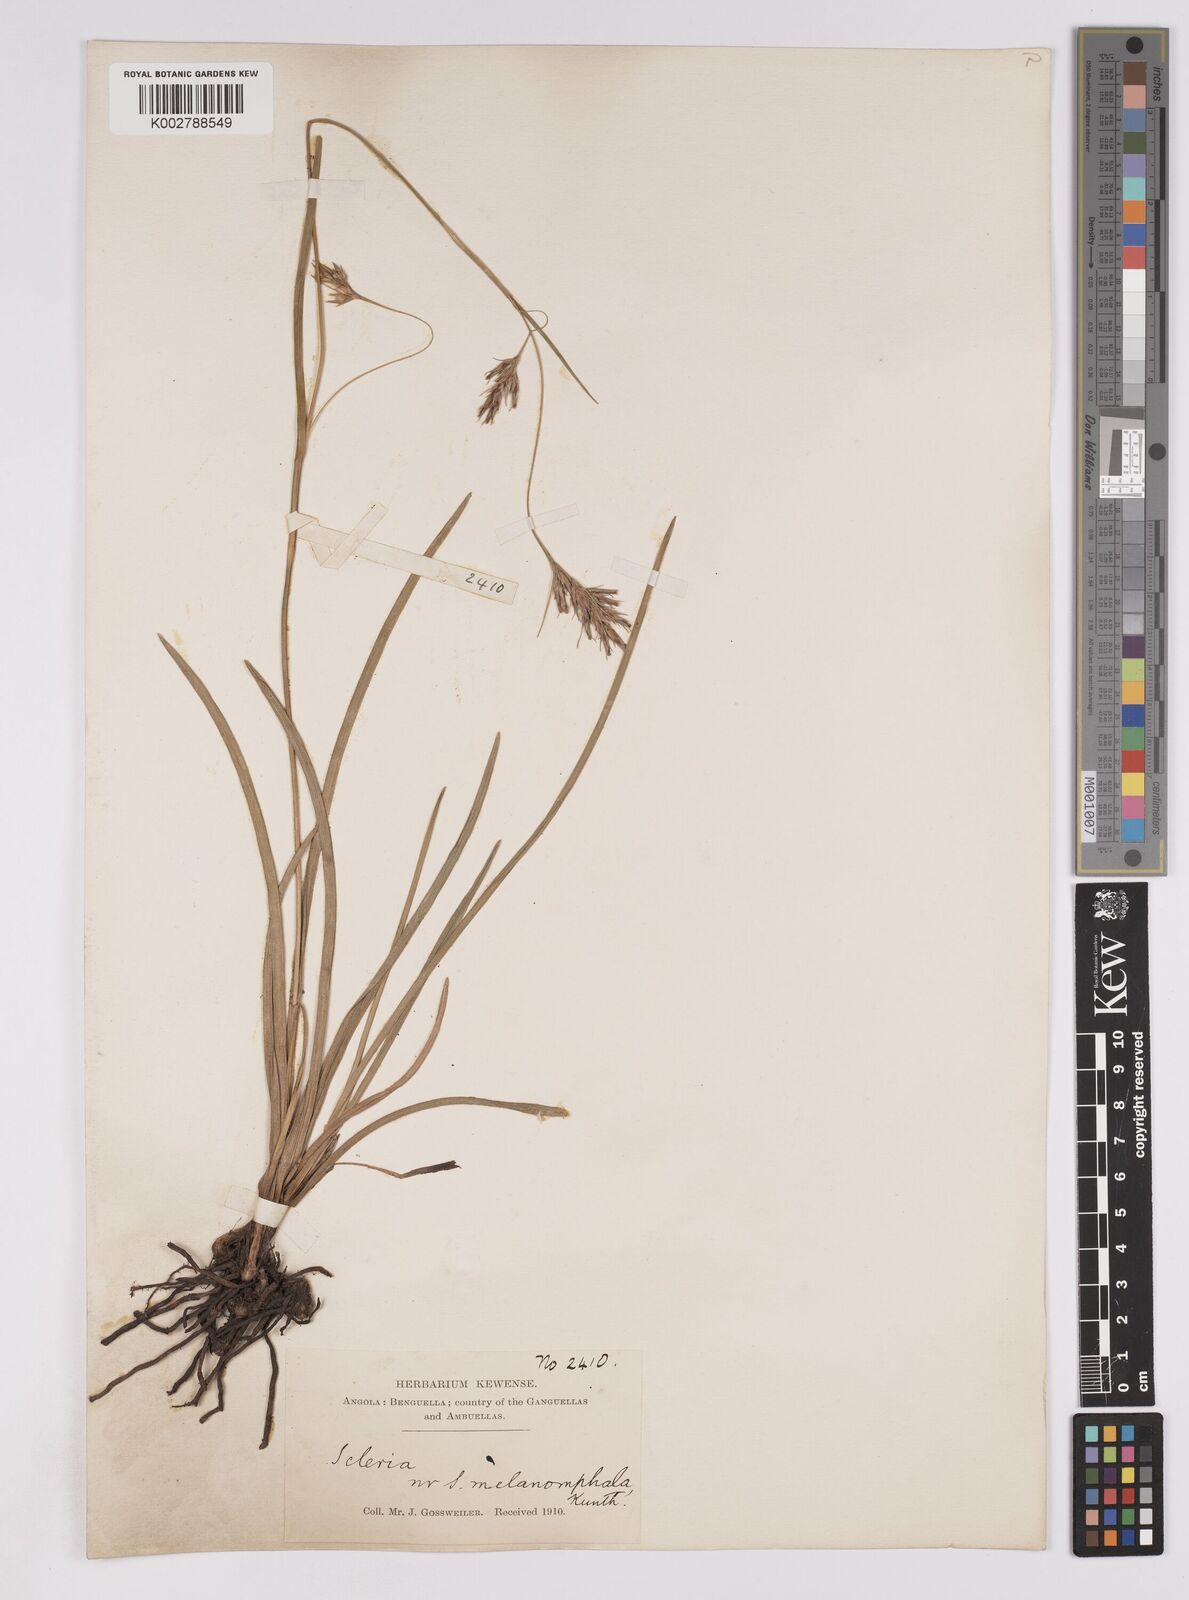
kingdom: Plantae
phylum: Tracheophyta
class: Liliopsida
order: Poales
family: Cyperaceae
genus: Scleria
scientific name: Scleria melanomphala
